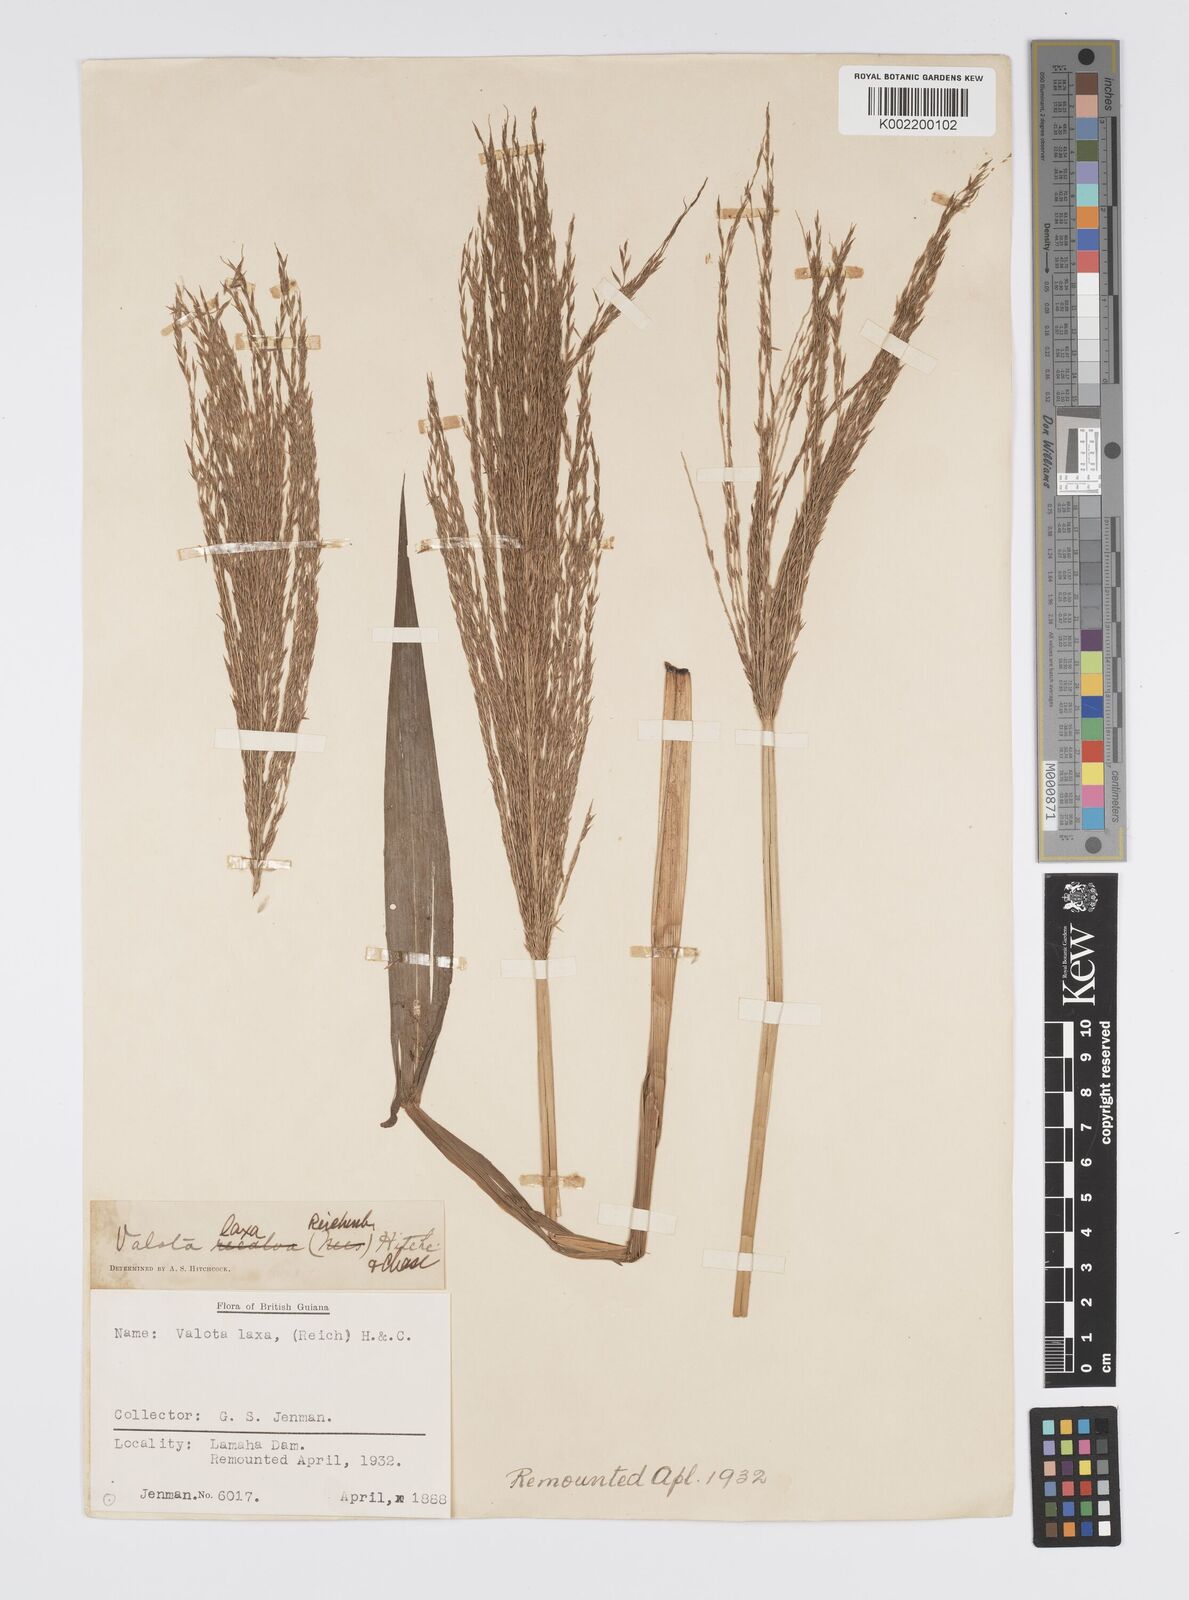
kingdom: Plantae
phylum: Tracheophyta
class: Liliopsida
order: Poales
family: Poaceae
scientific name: Poaceae
